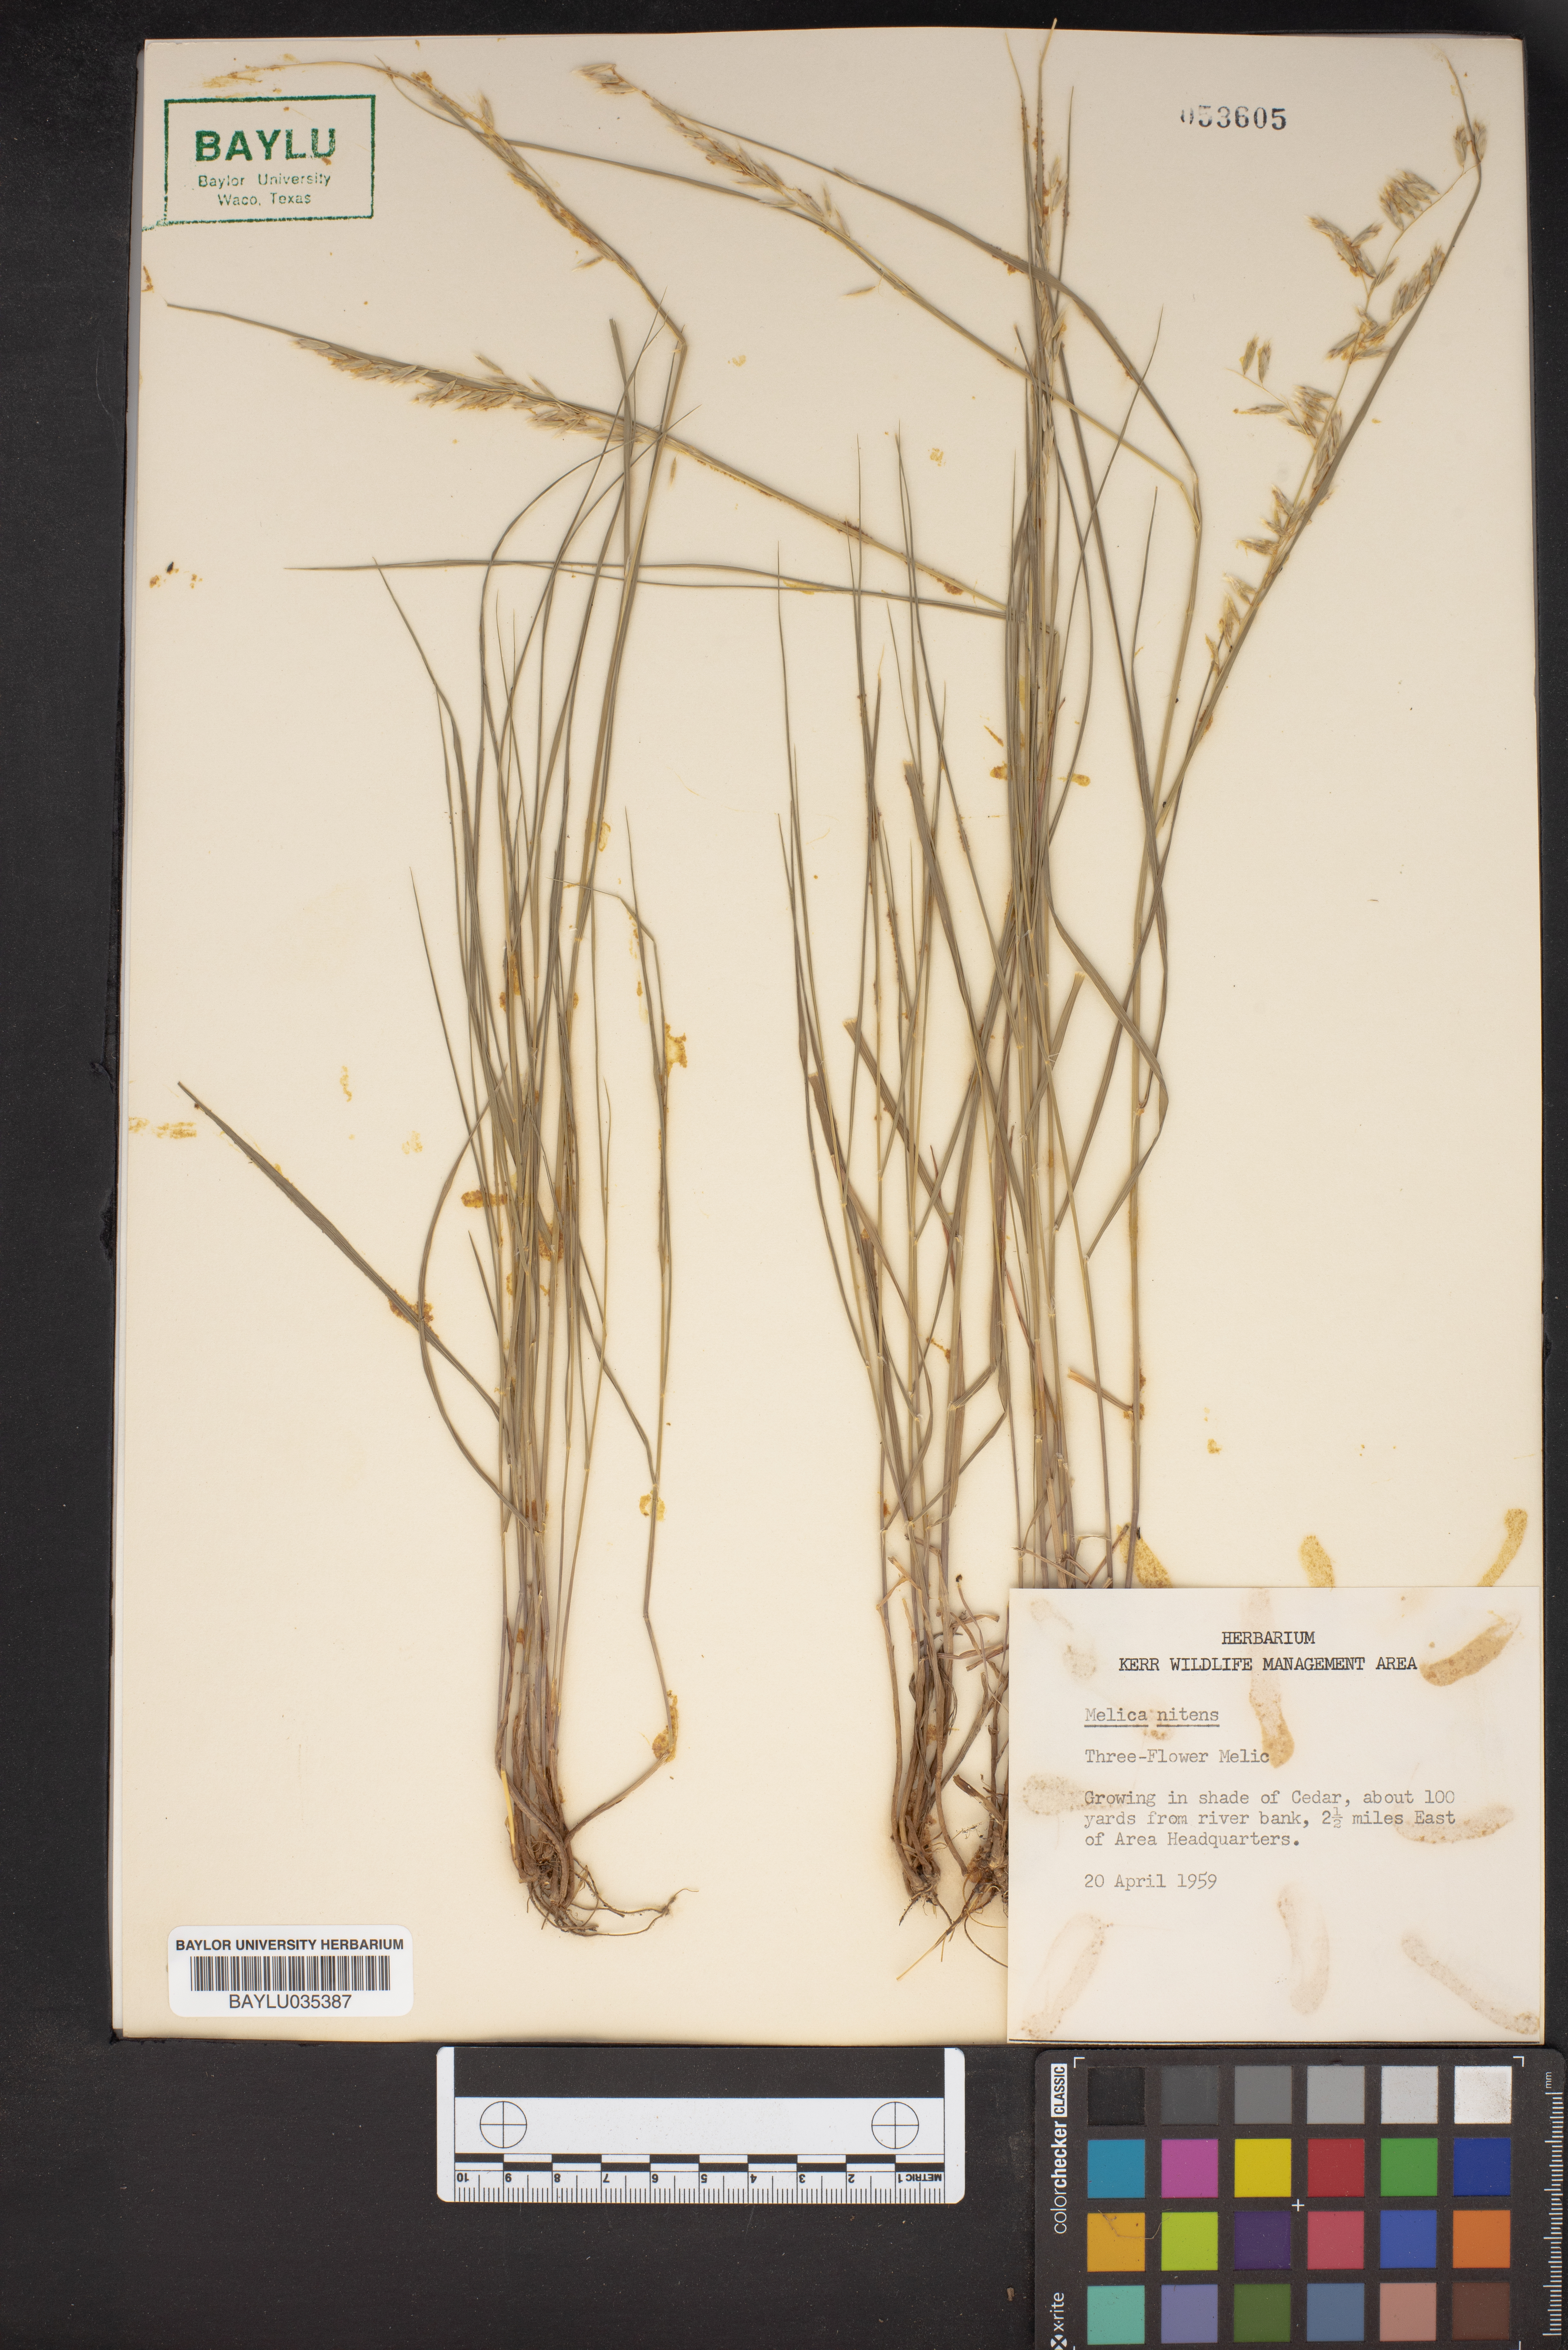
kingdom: Plantae
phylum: Tracheophyta
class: Liliopsida
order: Poales
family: Poaceae
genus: Melica
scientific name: Melica nitens
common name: Three-flower melic
